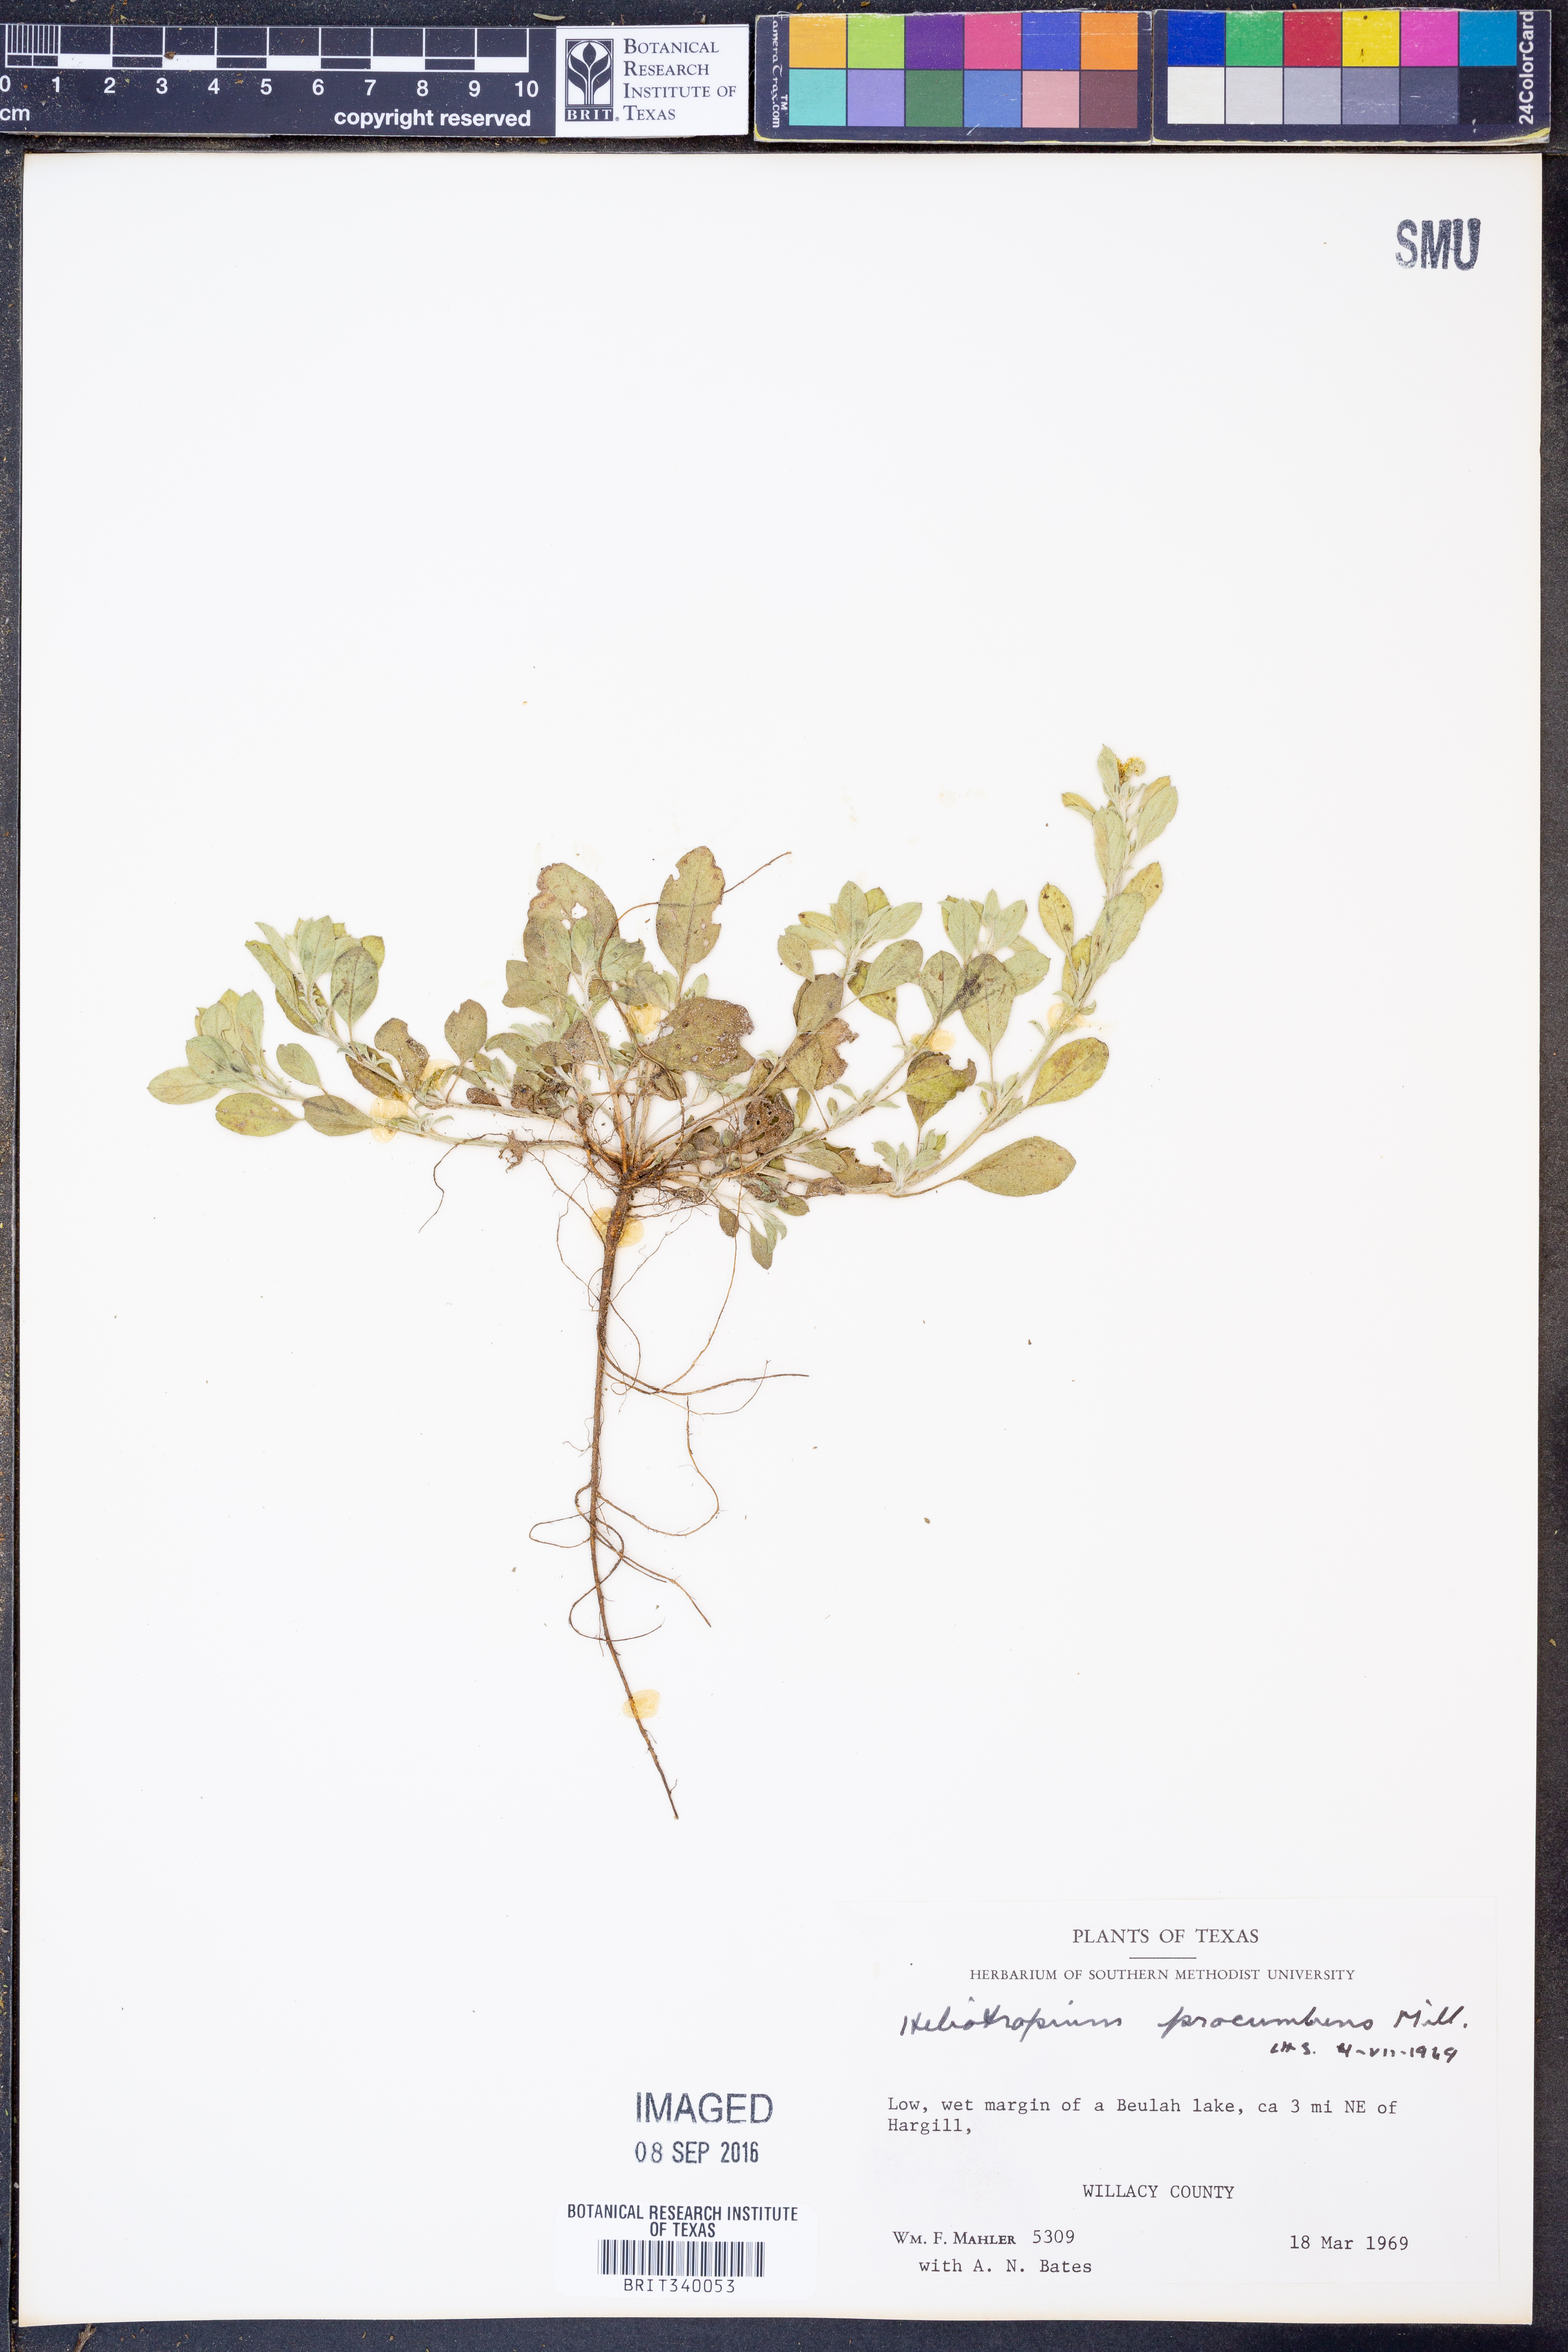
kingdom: Plantae
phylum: Tracheophyta
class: Magnoliopsida
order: Boraginales
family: Heliotropiaceae
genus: Euploca
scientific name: Euploca procumbens
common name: Fourspike heliotrope
